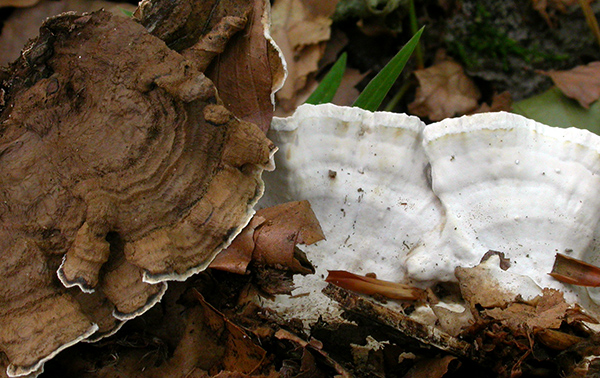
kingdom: Fungi
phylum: Basidiomycota
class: Agaricomycetes
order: Russulales
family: Hericiaceae
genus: Laxitextum
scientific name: Laxitextum bicolor
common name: tvefarvet filtskind
